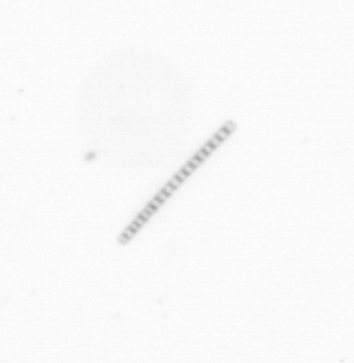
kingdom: Chromista
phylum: Ochrophyta
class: Bacillariophyceae
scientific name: Bacillariophyceae
